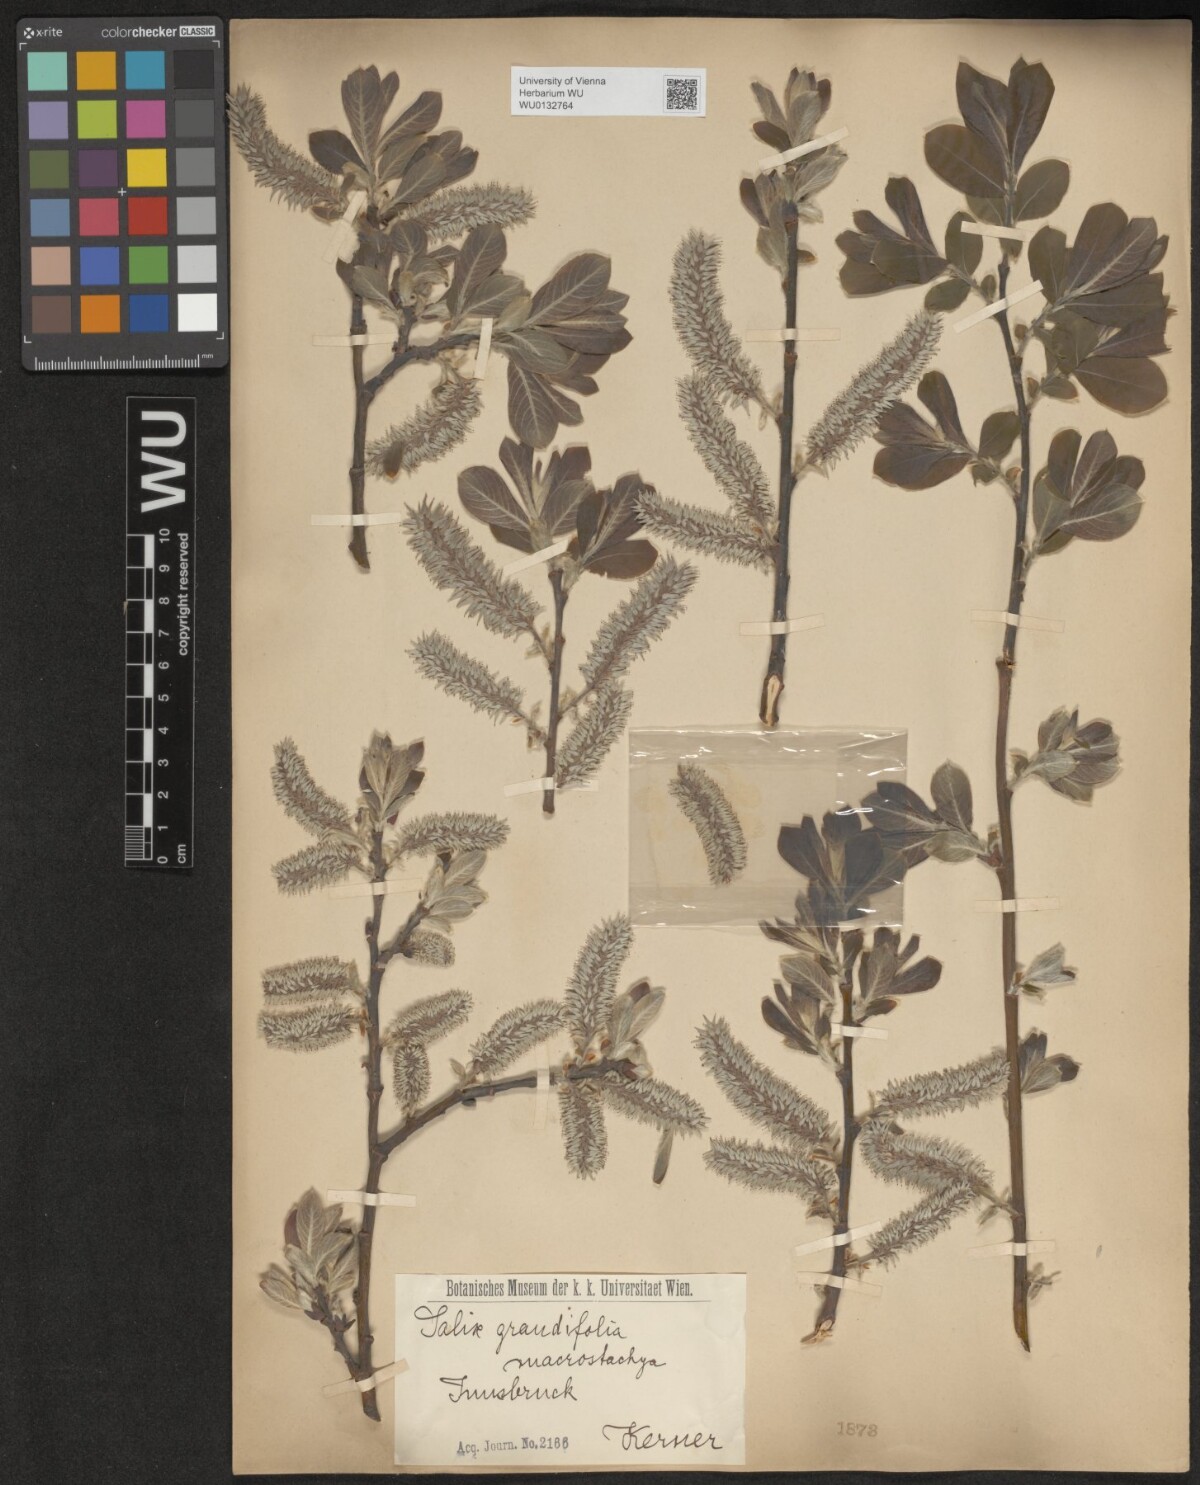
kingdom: Plantae
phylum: Tracheophyta
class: Magnoliopsida
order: Malpighiales
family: Salicaceae
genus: Salix
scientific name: Salix appendiculata
